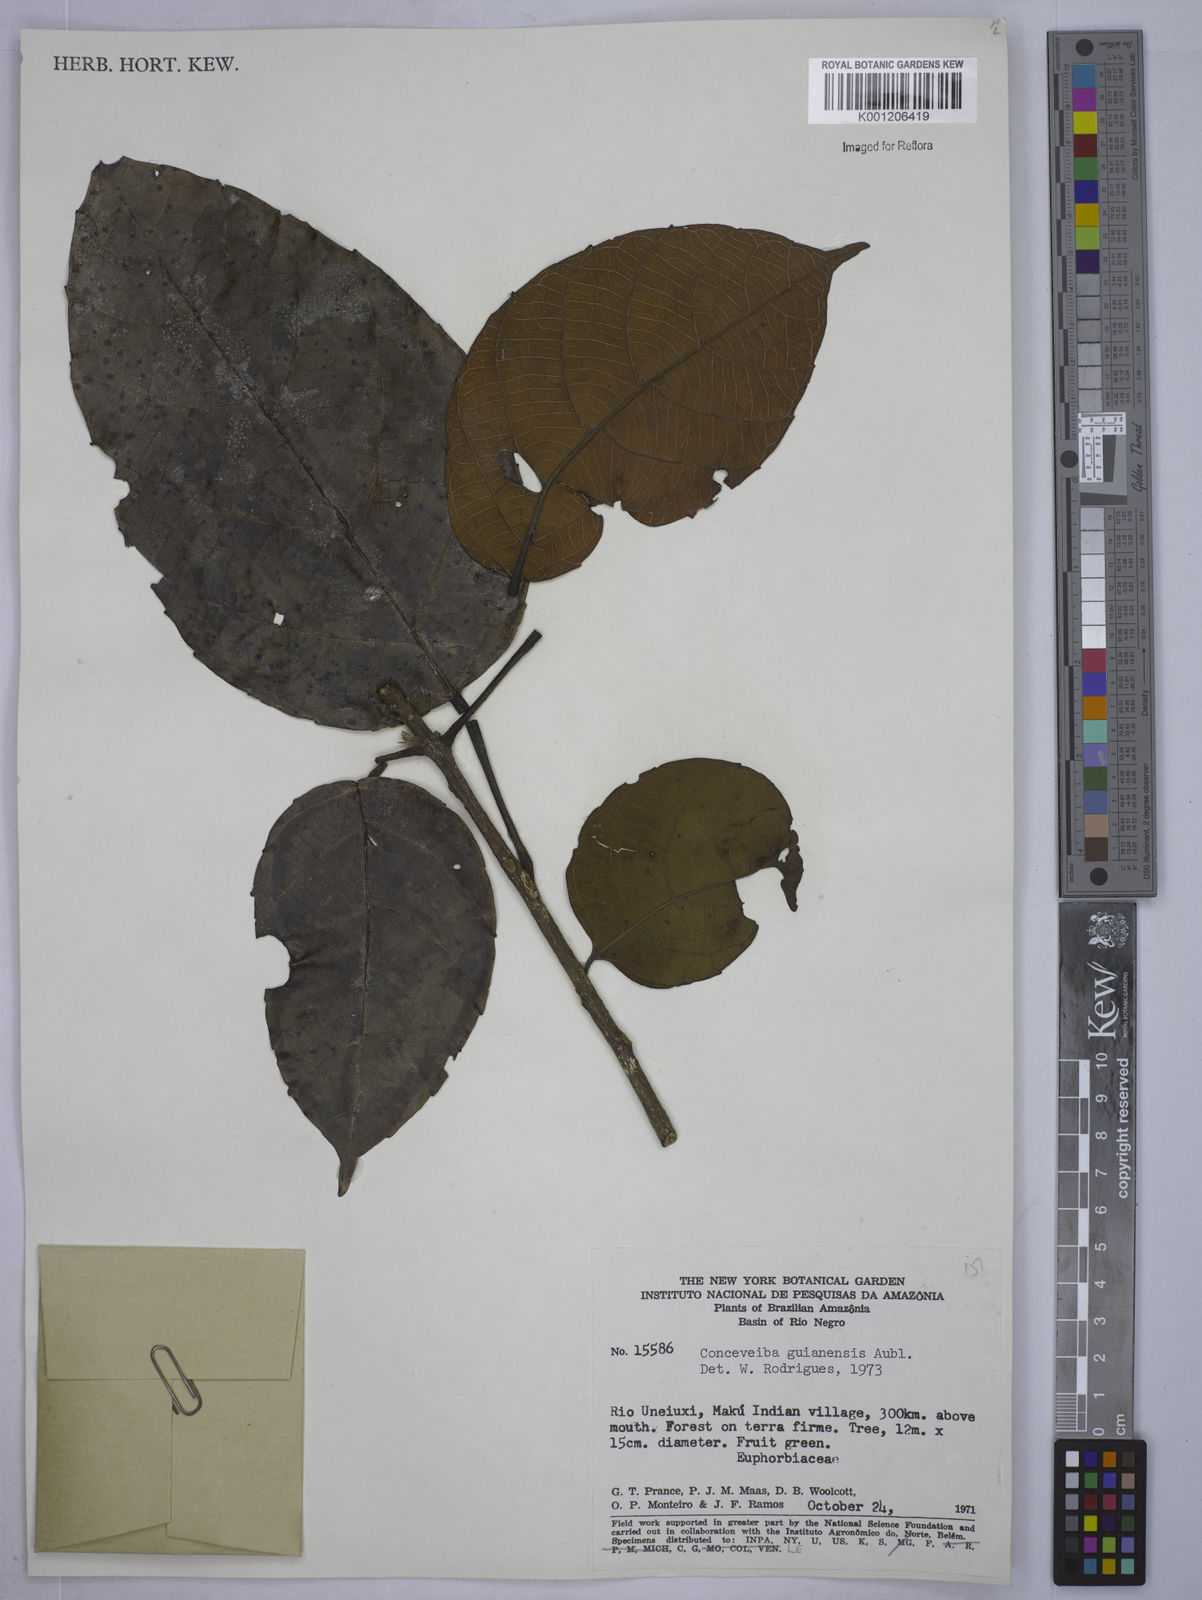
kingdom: Plantae
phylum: Tracheophyta
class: Magnoliopsida
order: Malpighiales
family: Euphorbiaceae
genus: Conceveiba
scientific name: Conceveiba guianensis
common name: Poatoru
